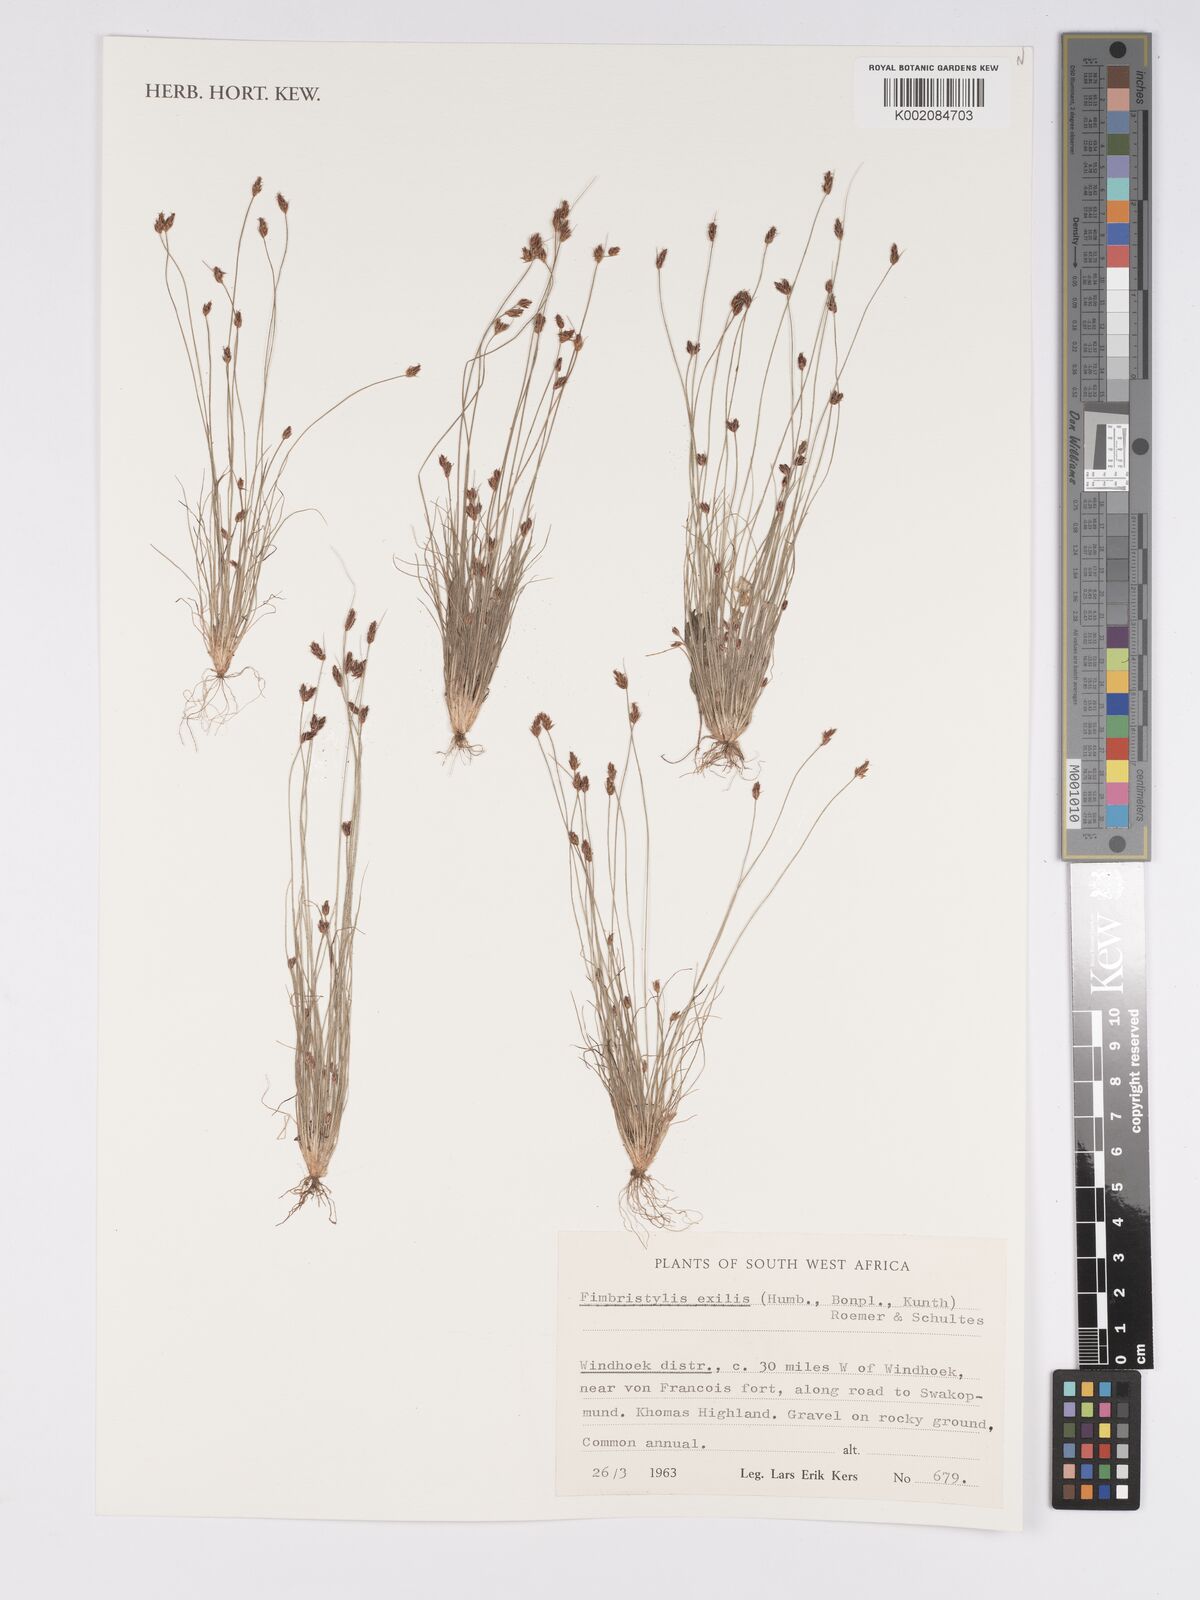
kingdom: Plantae
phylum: Tracheophyta
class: Liliopsida
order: Poales
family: Cyperaceae
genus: Bulbostylis
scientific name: Bulbostylis hispidula
